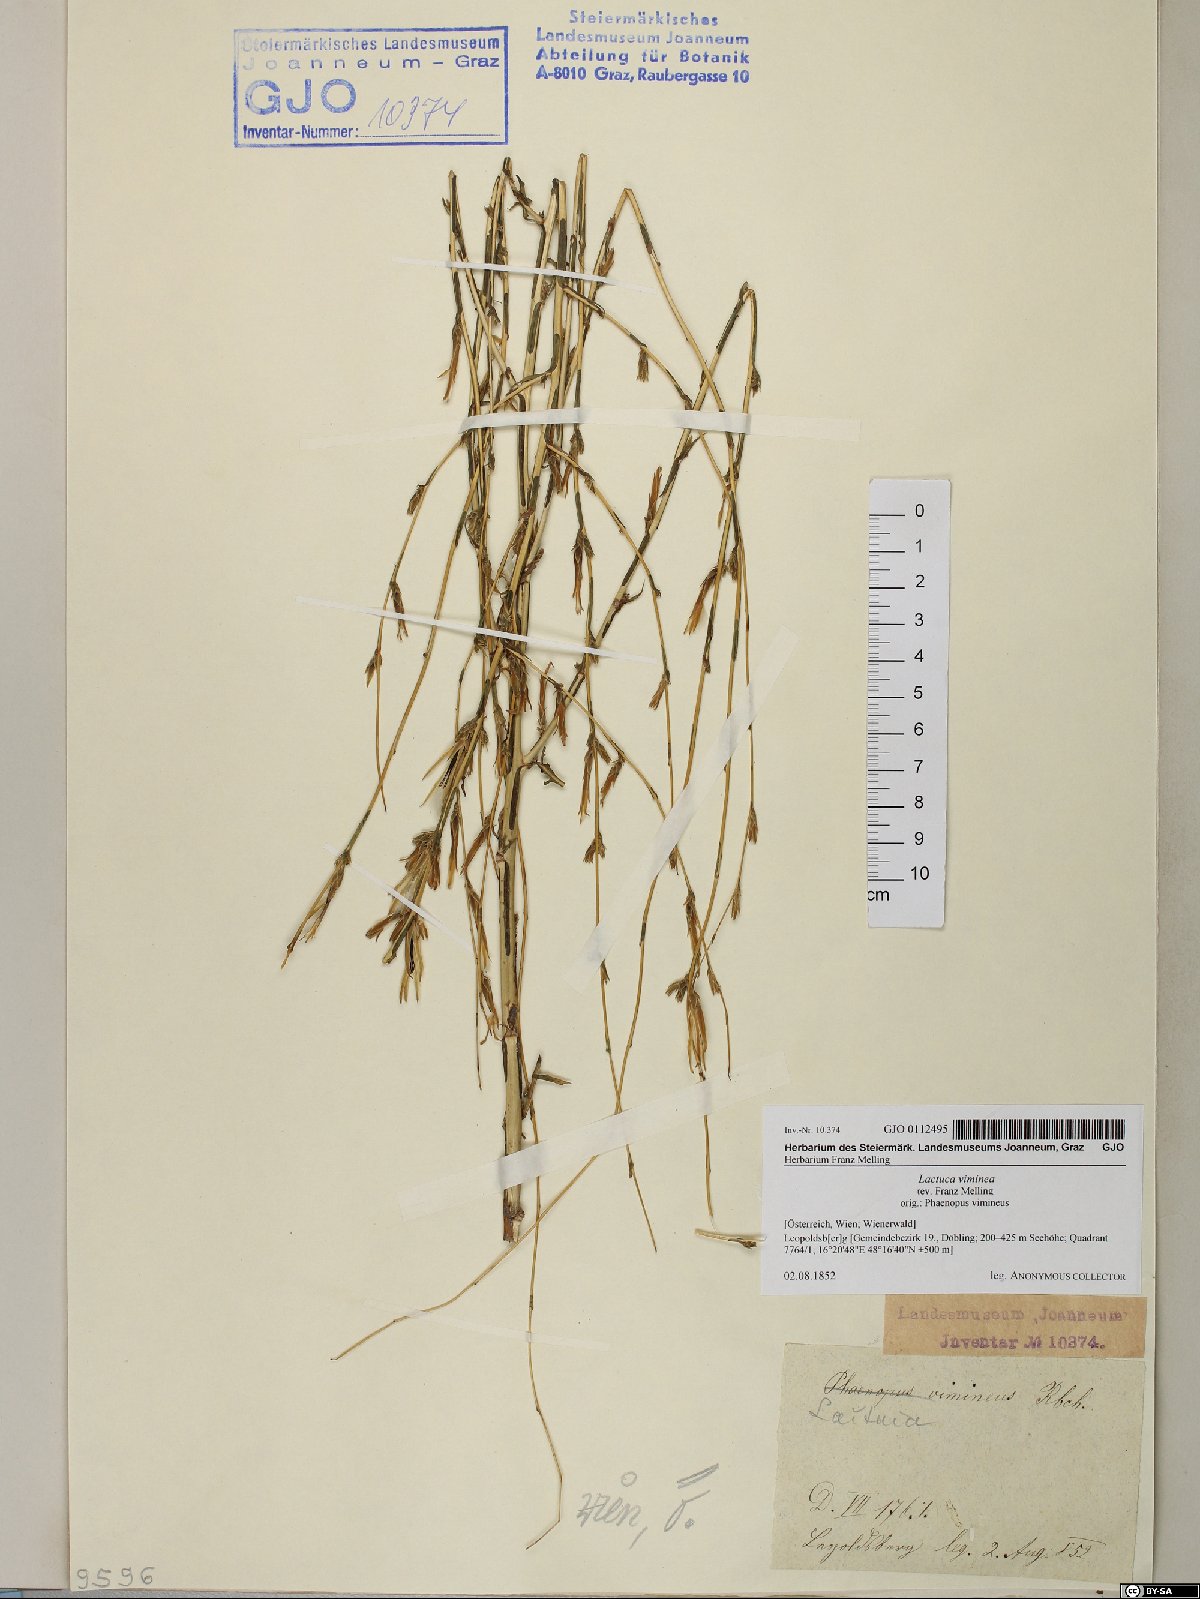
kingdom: Plantae
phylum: Tracheophyta
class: Magnoliopsida
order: Asterales
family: Asteraceae
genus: Lactuca
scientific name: Lactuca viminea
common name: Pliant lettuce
